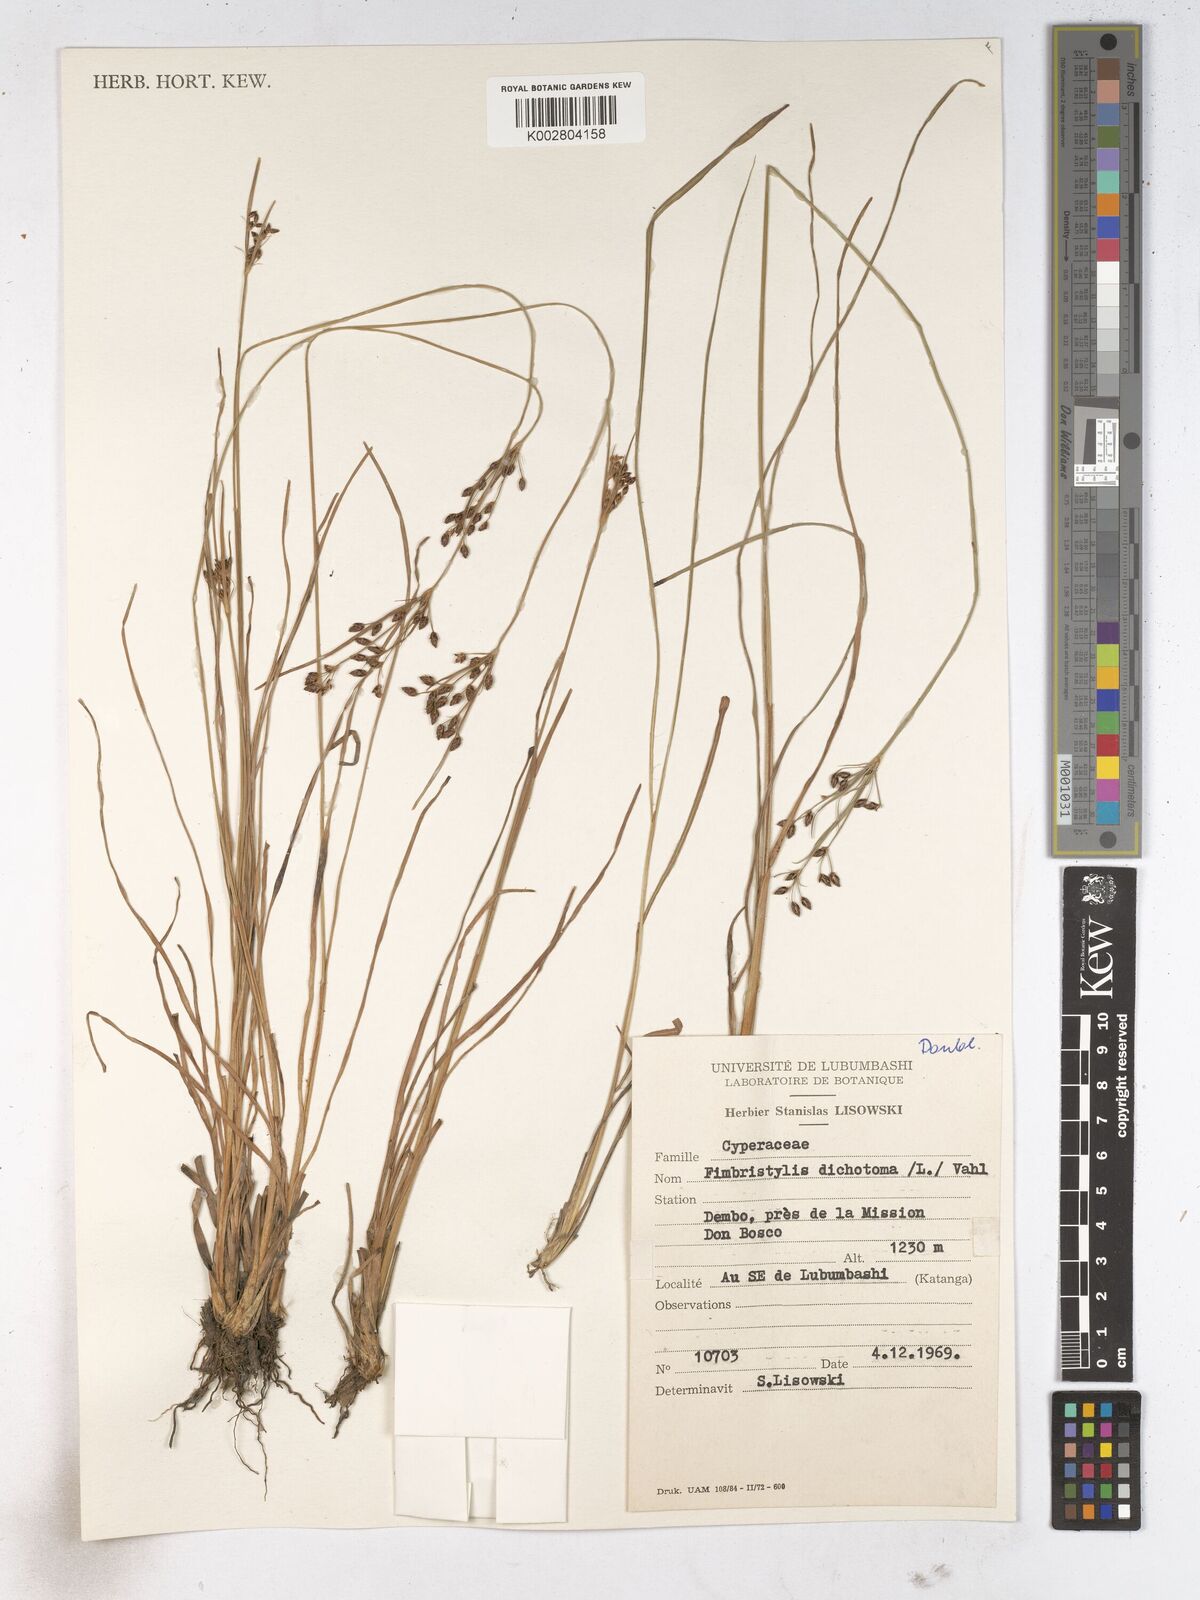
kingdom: Plantae
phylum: Tracheophyta
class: Liliopsida
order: Poales
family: Cyperaceae
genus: Fimbristylis
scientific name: Fimbristylis dichotoma
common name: Forked fimbry
